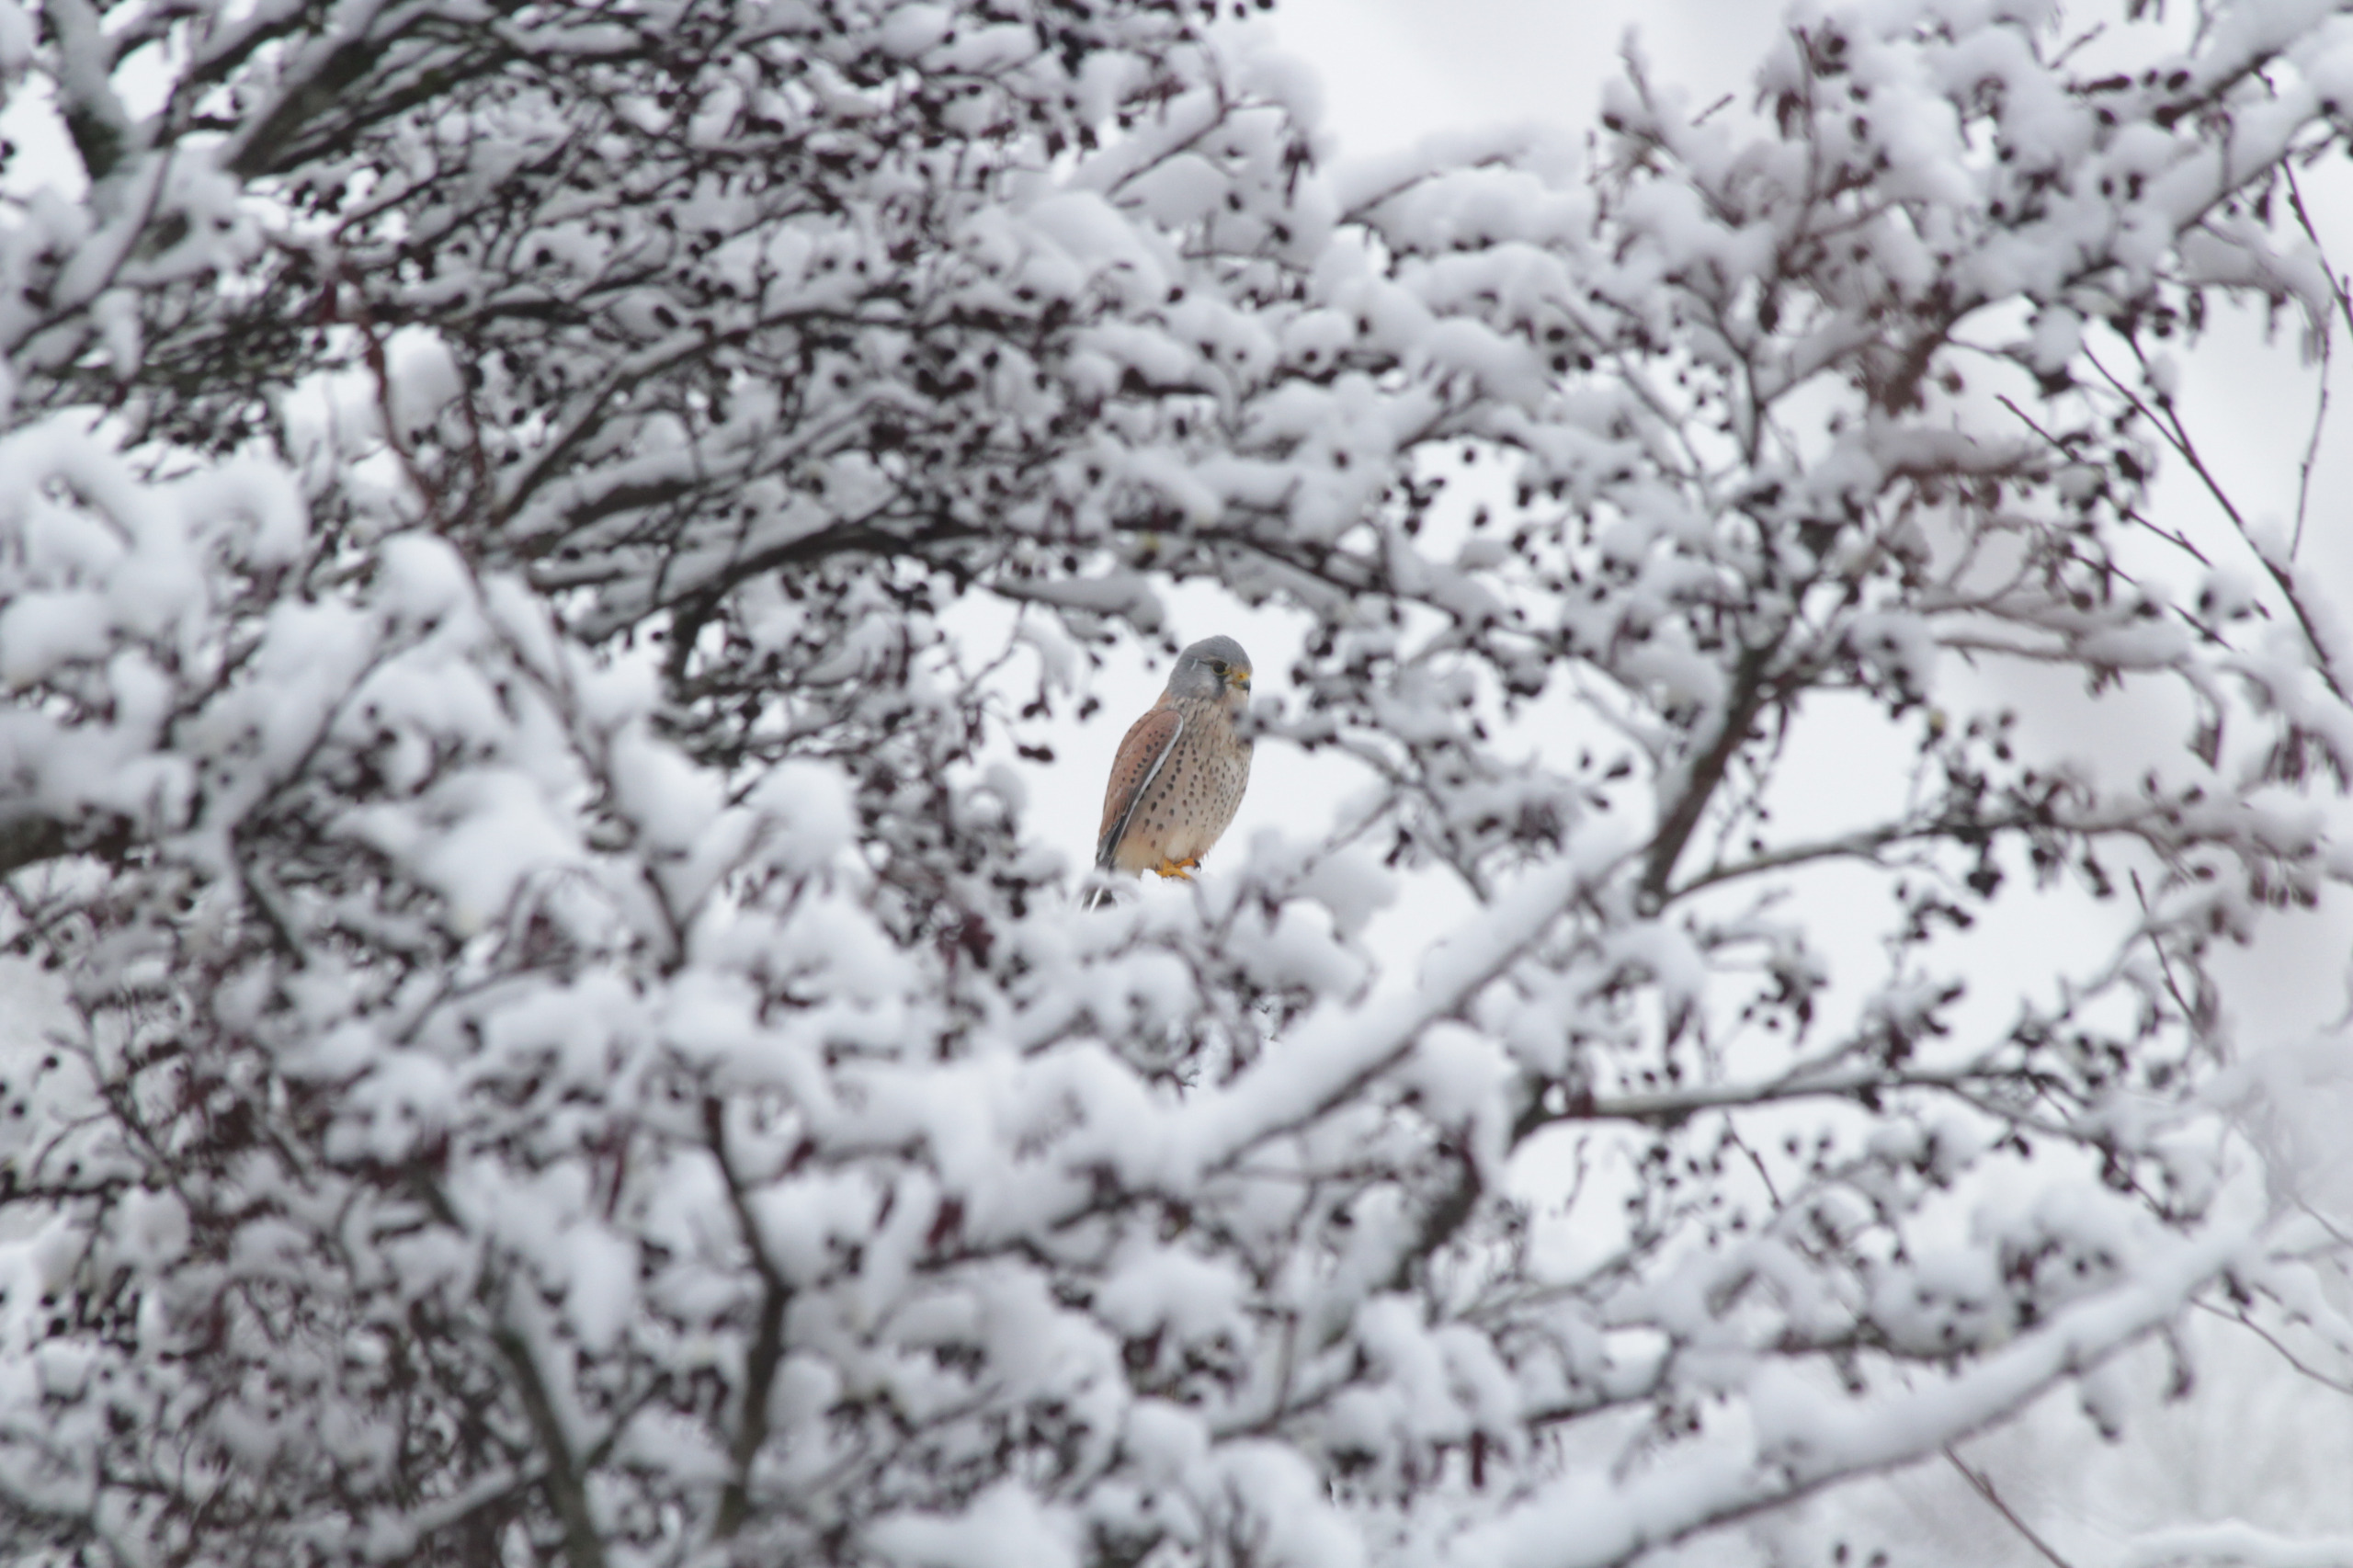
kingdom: Animalia
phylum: Chordata
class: Aves
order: Falconiformes
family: Falconidae
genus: Falco
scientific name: Falco tinnunculus
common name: Tårnfalk
